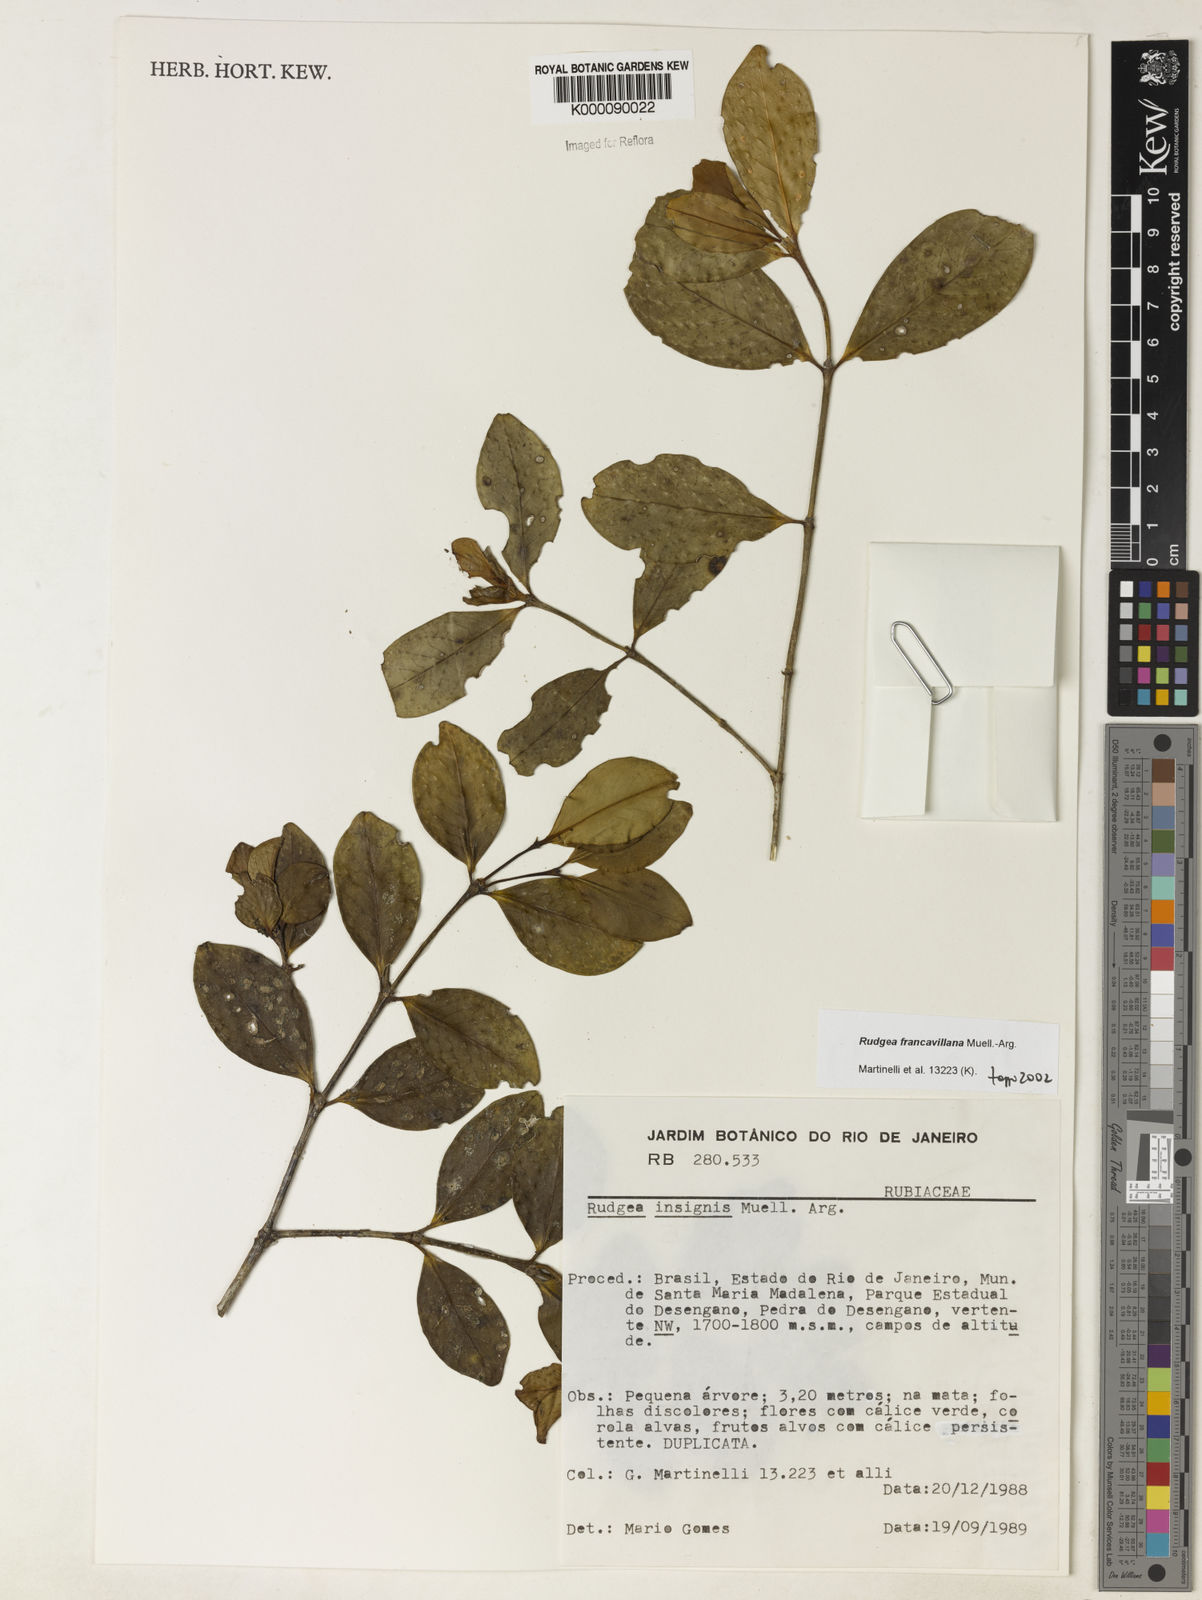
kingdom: Plantae
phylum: Tracheophyta
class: Magnoliopsida
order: Gentianales
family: Rubiaceae
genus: Rudgea
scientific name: Rudgea francavillana
